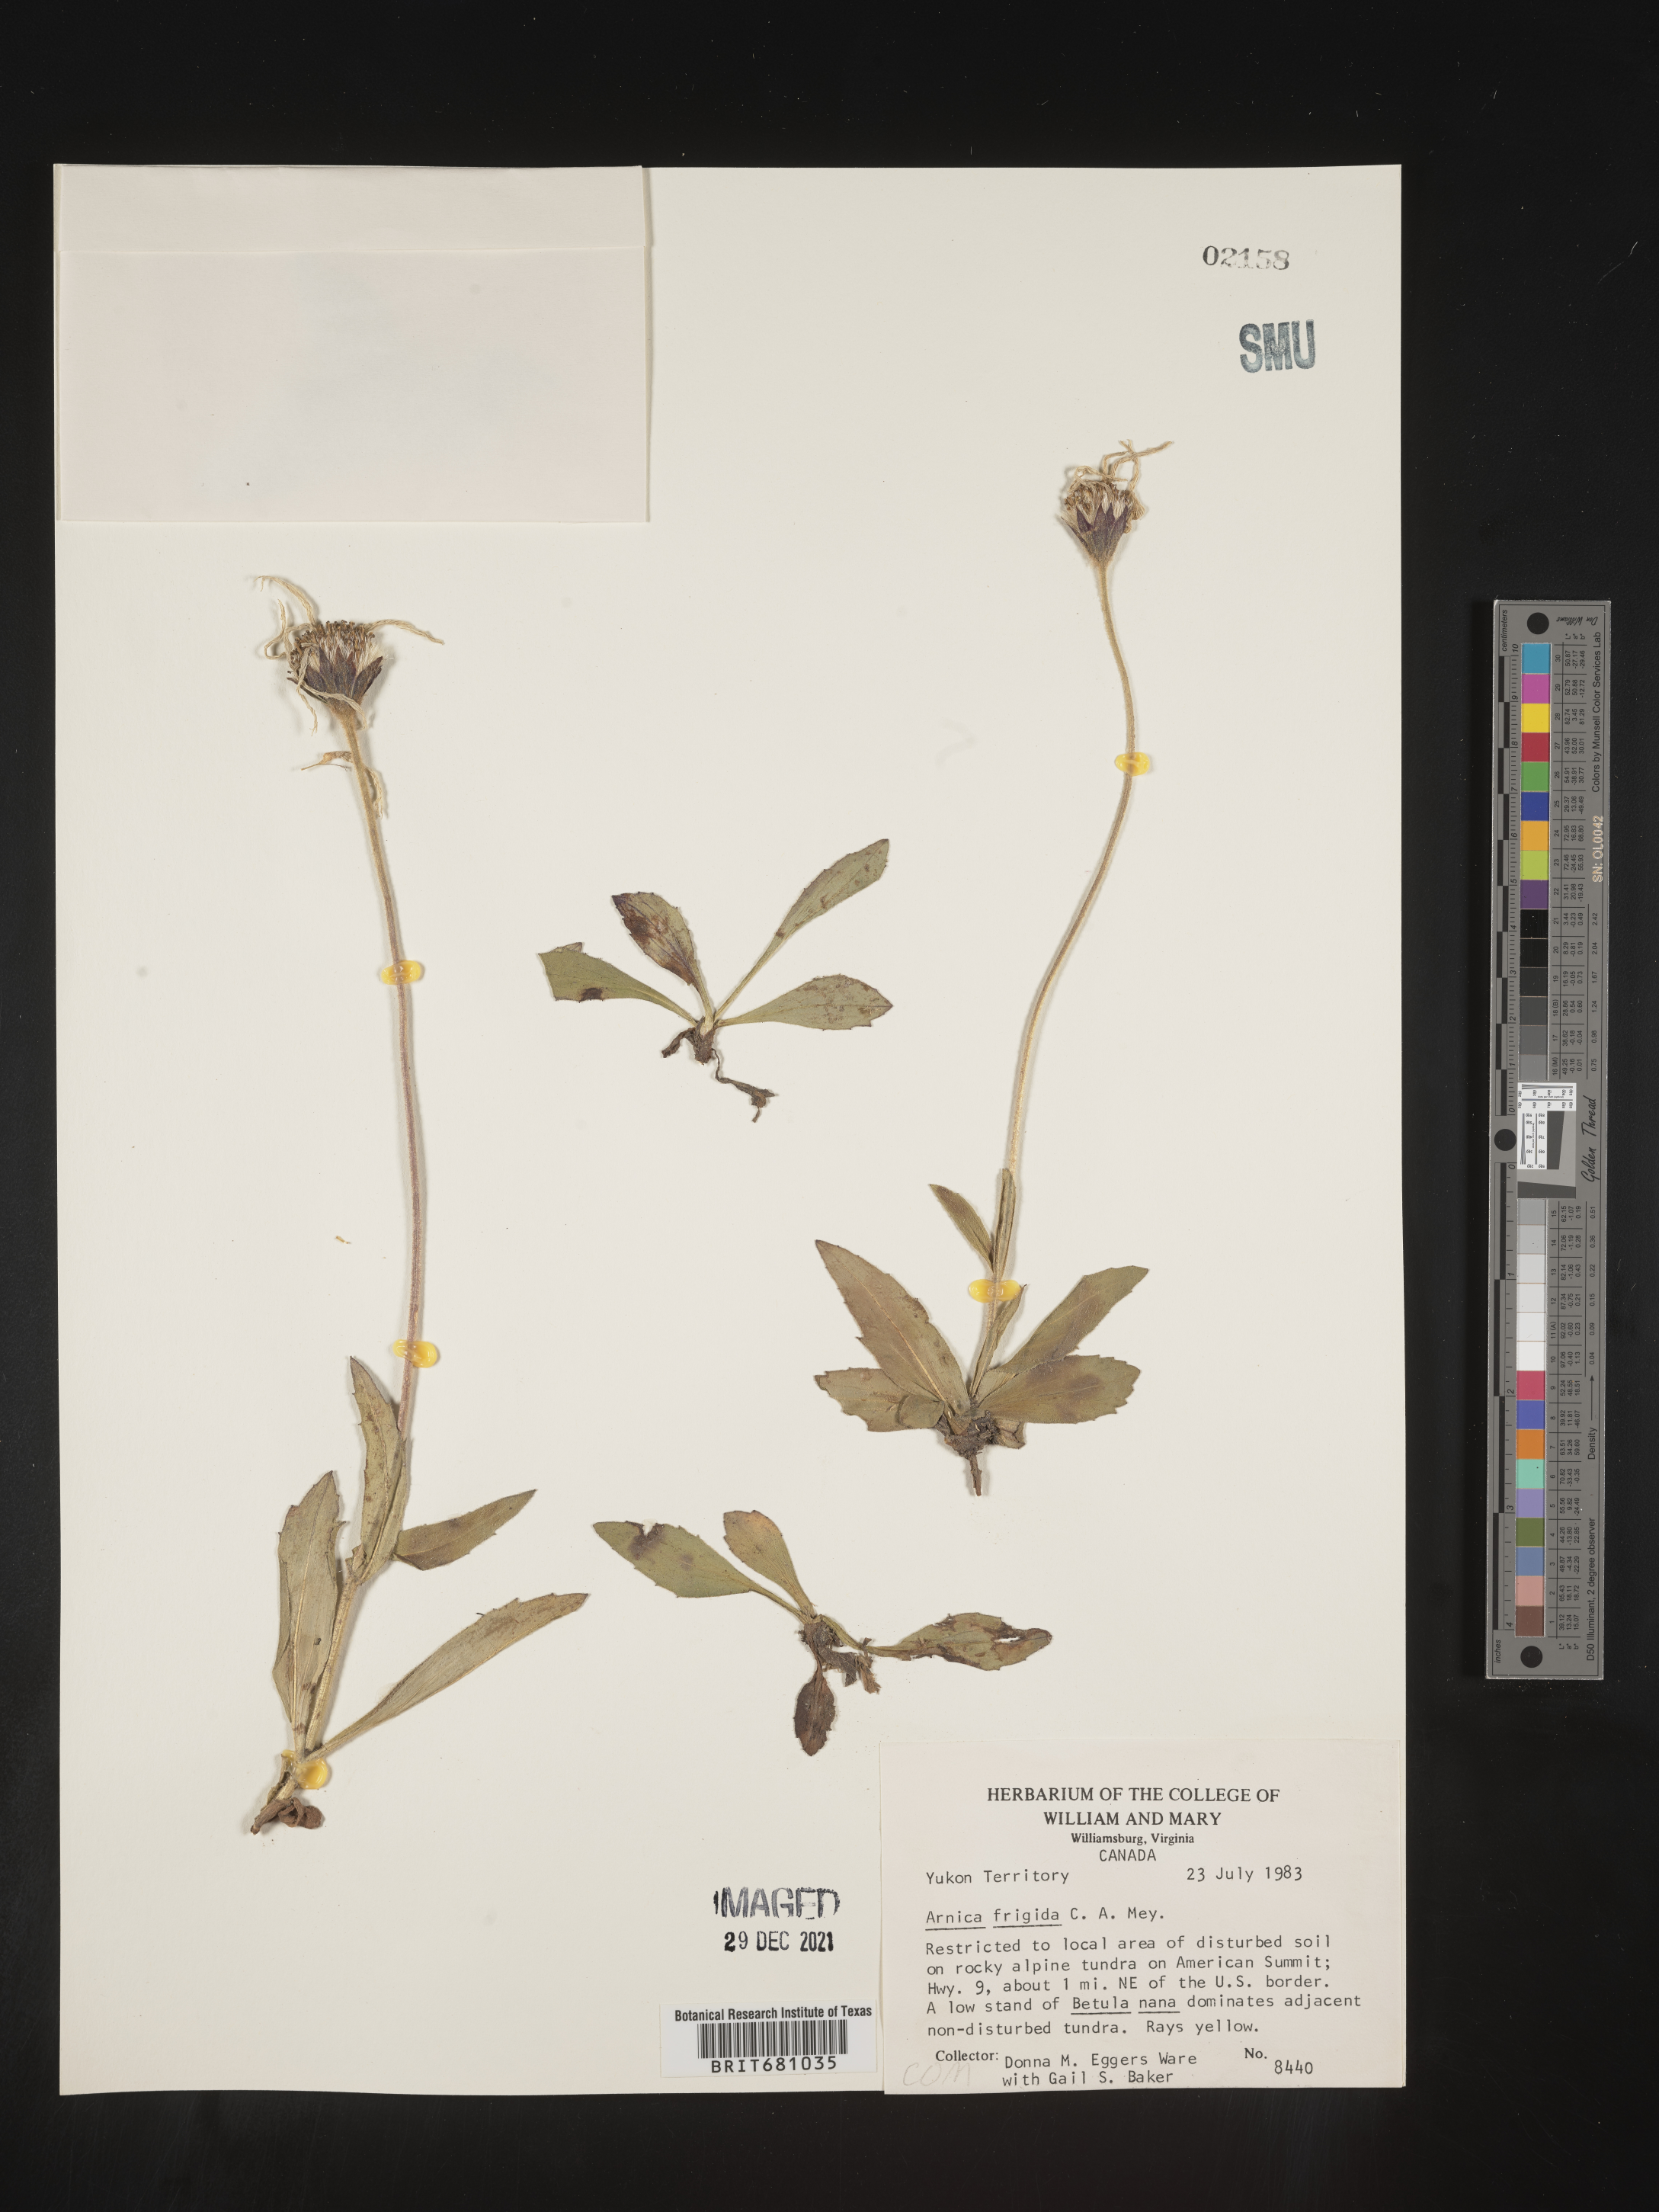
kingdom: Plantae
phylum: Tracheophyta
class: Magnoliopsida
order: Asterales
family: Asteraceae
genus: Arnica
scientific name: Arnica
